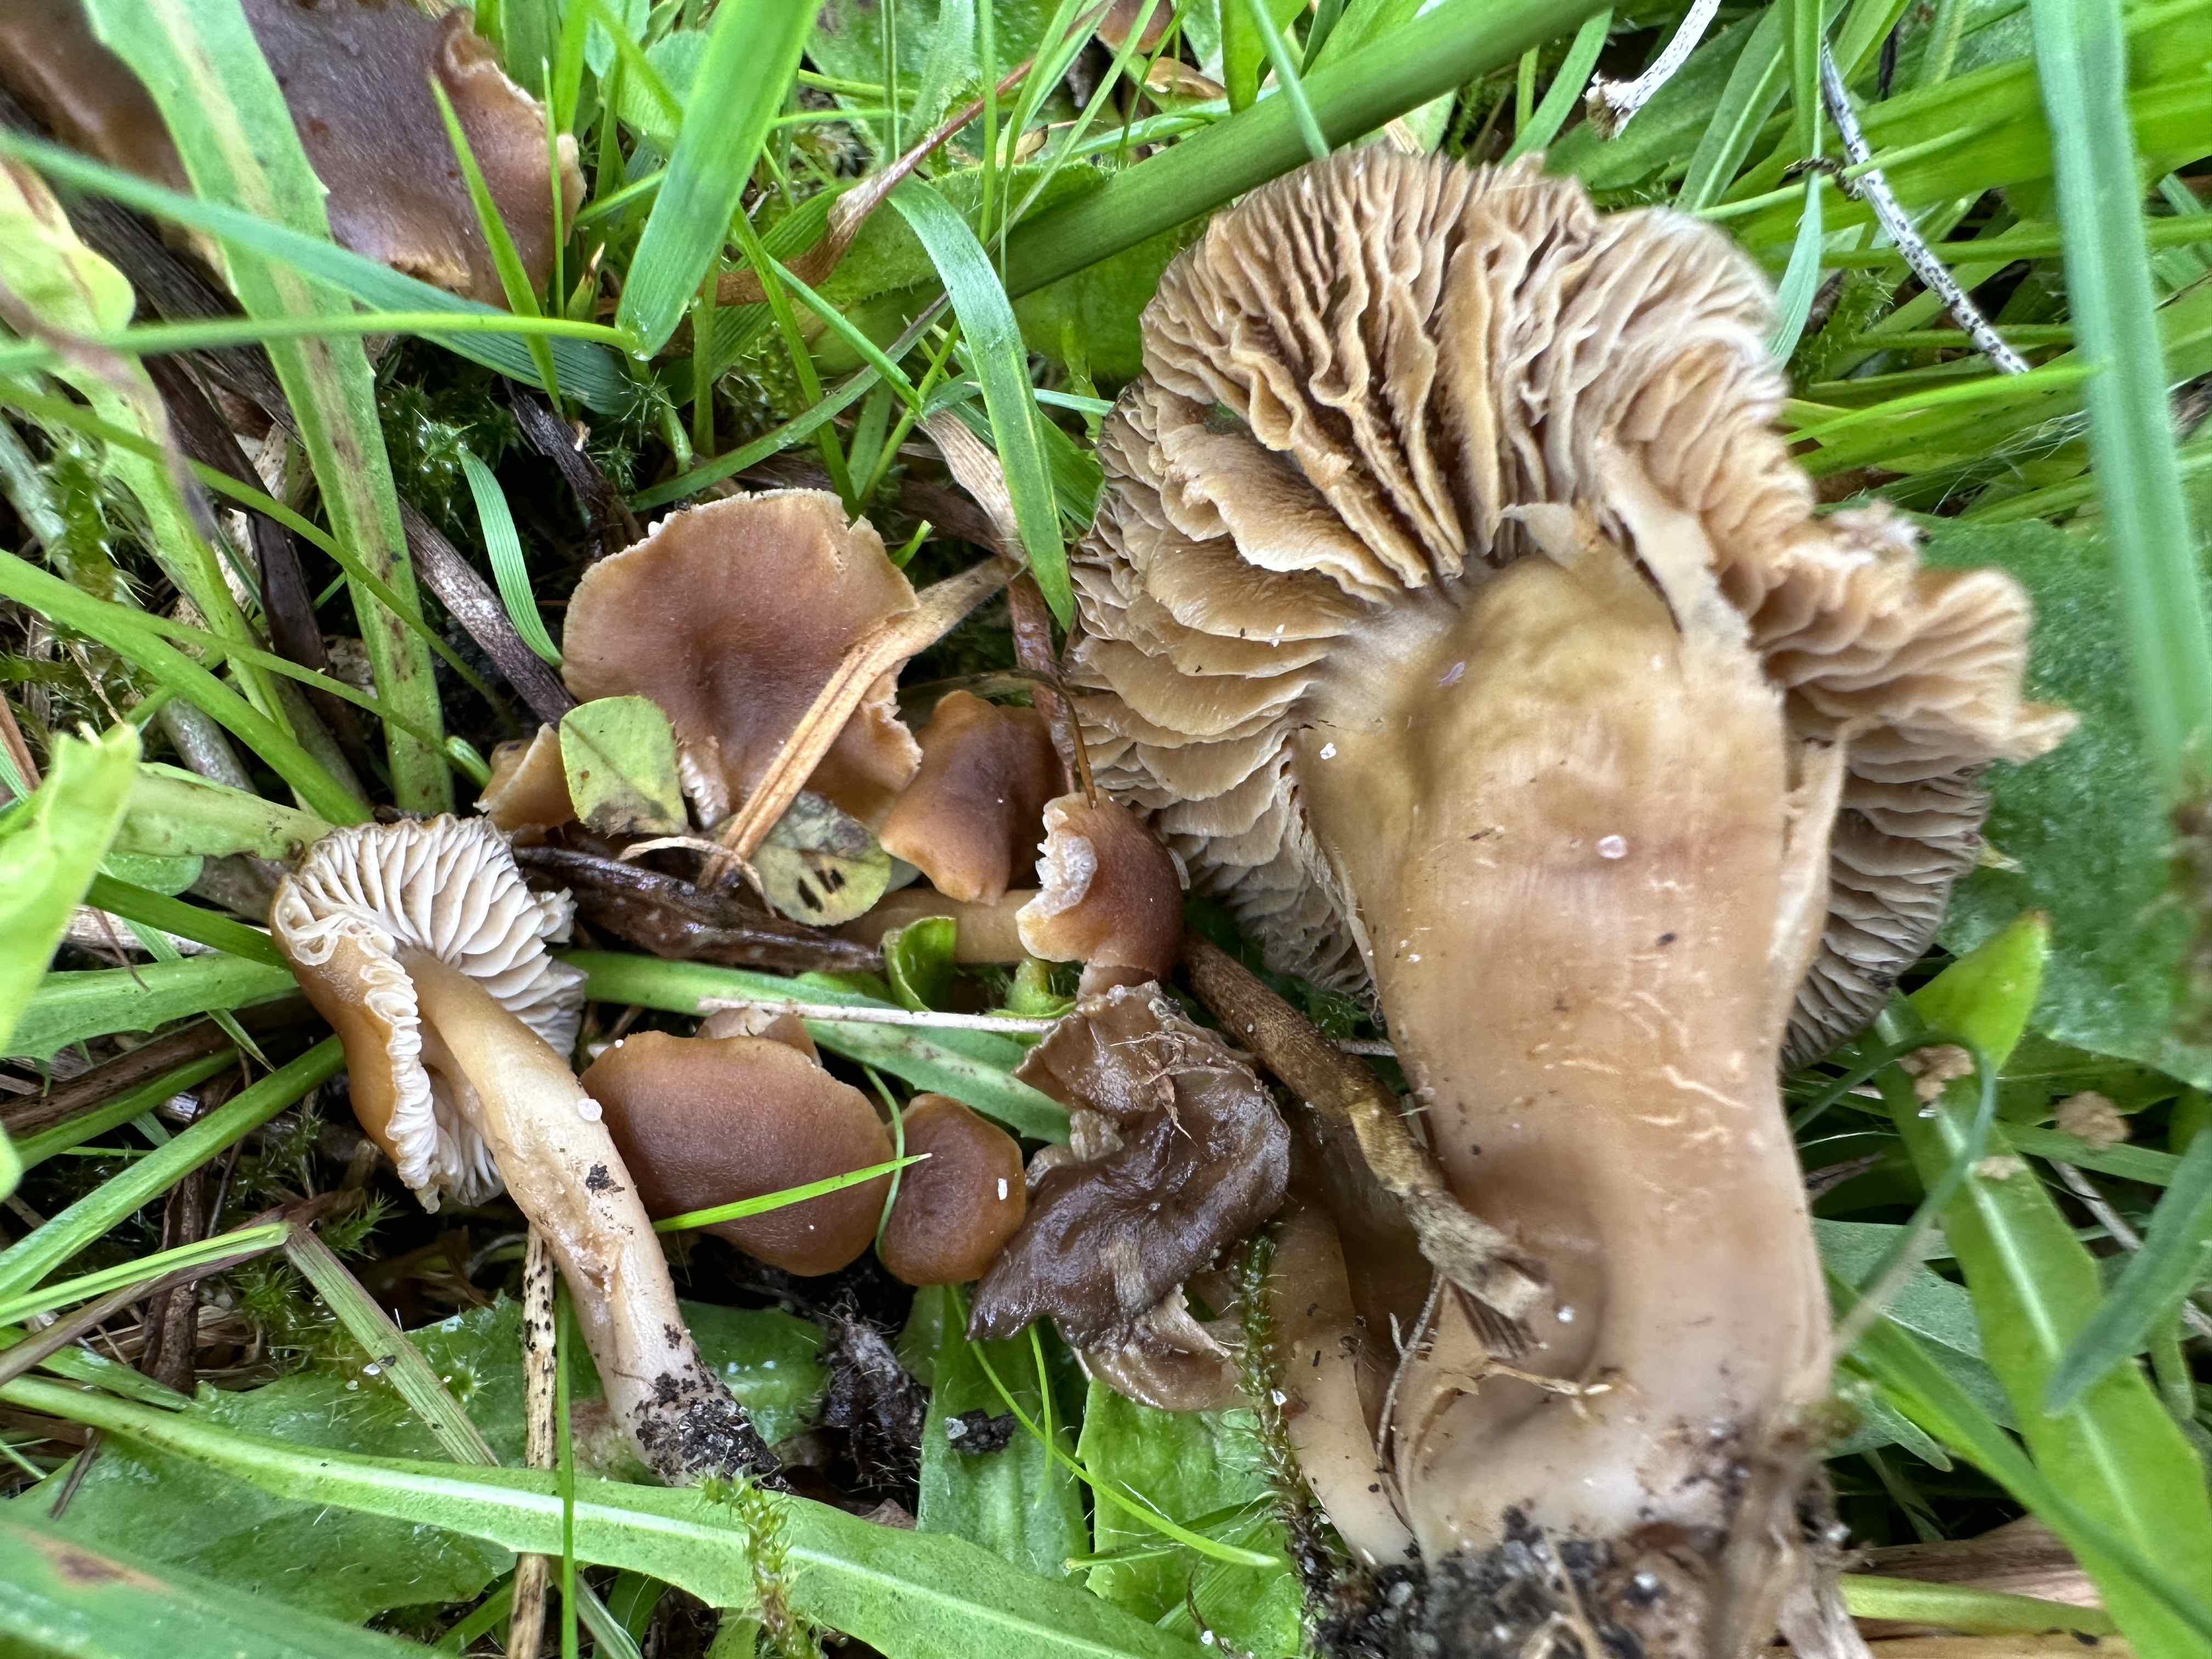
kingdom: Fungi
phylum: Basidiomycota
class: Agaricomycetes
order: Agaricales
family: Clavariaceae
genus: Camarophyllopsis
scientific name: Camarophyllopsis schulzeri
